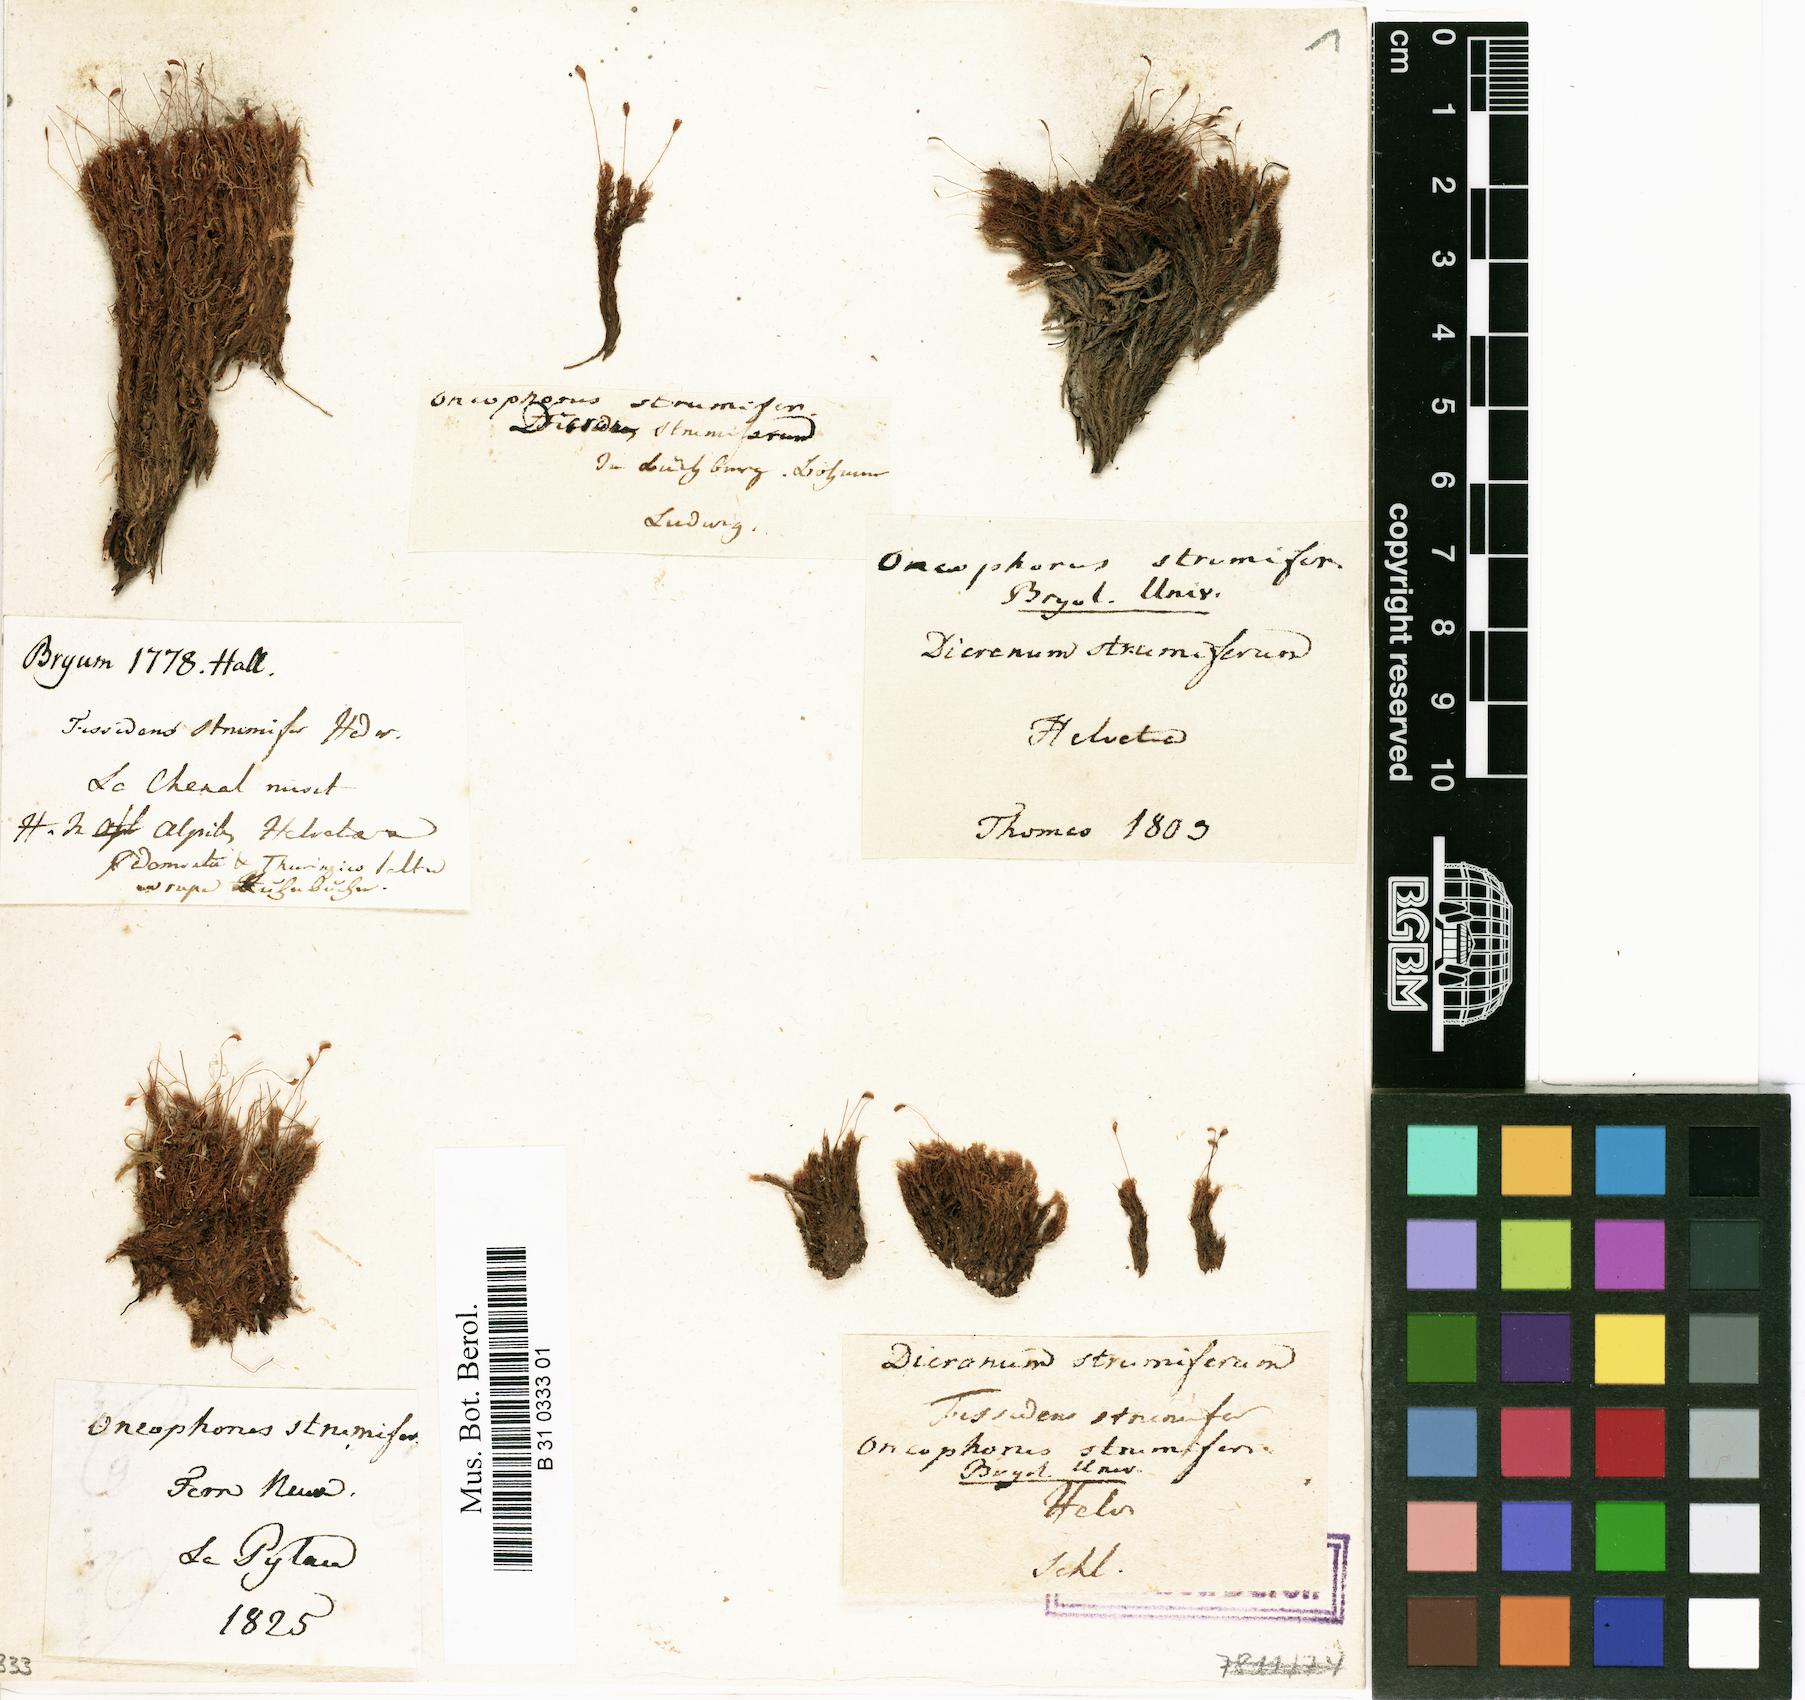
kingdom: Plantae
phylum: Bryophyta
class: Bryopsida
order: Dicranales
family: Rhabdoweisiaceae
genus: Cynodontium
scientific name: Cynodontium strumiferum
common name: Swollen dogtooth moss
